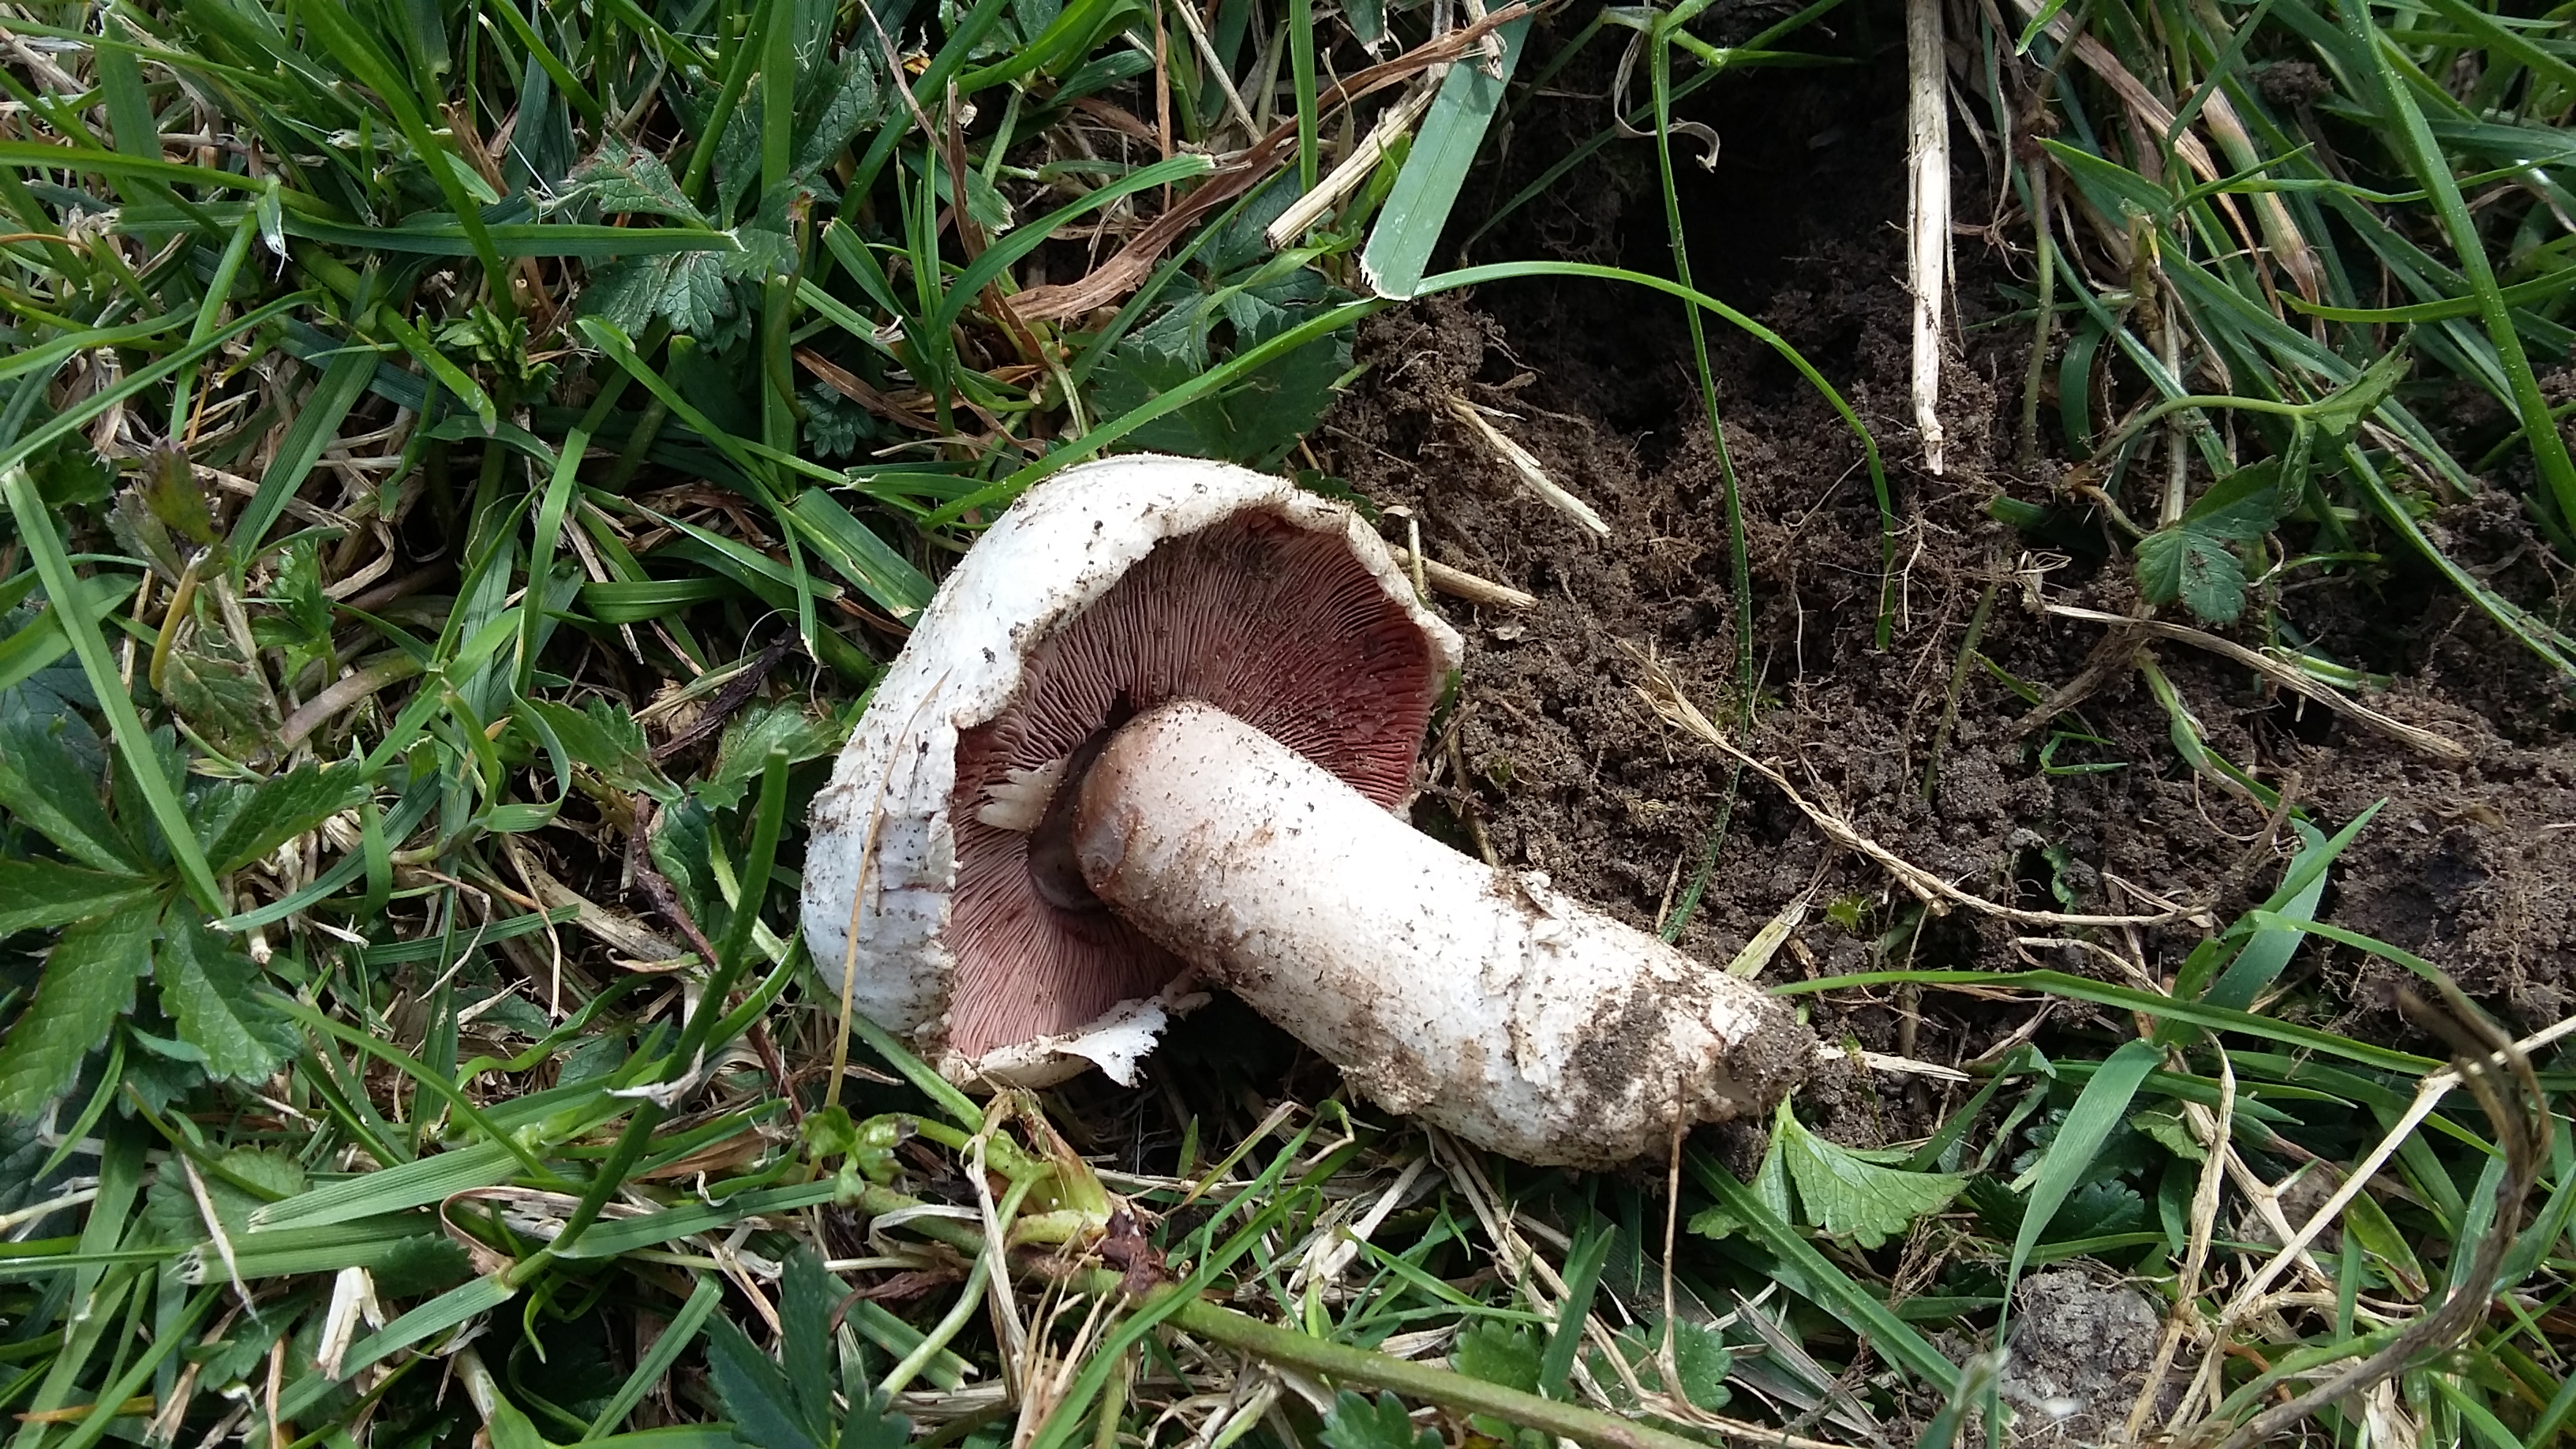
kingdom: Fungi
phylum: Basidiomycota
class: Agaricomycetes
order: Agaricales
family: Agaricaceae
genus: Agaricus
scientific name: Agaricus campestris
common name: mark-champignon
